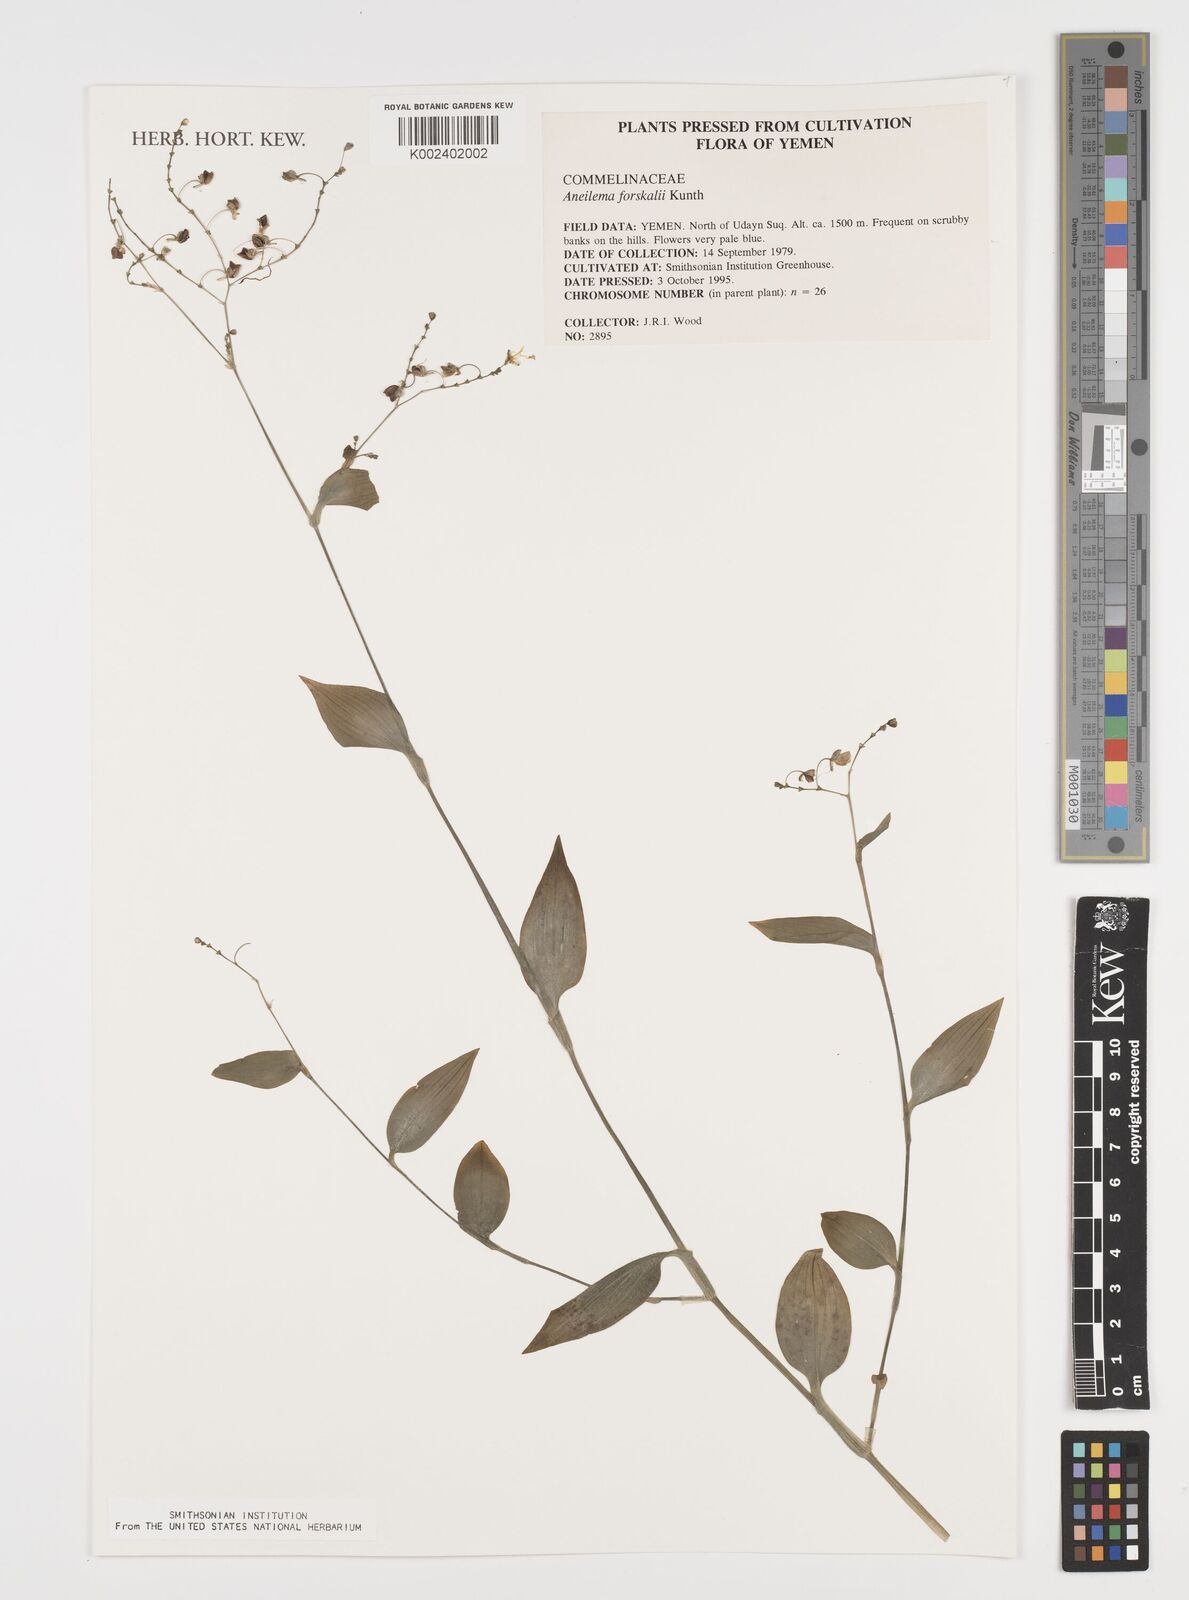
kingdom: Plantae
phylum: Tracheophyta
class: Liliopsida
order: Commelinales
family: Commelinaceae
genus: Aneilema
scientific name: Aneilema forskalii
